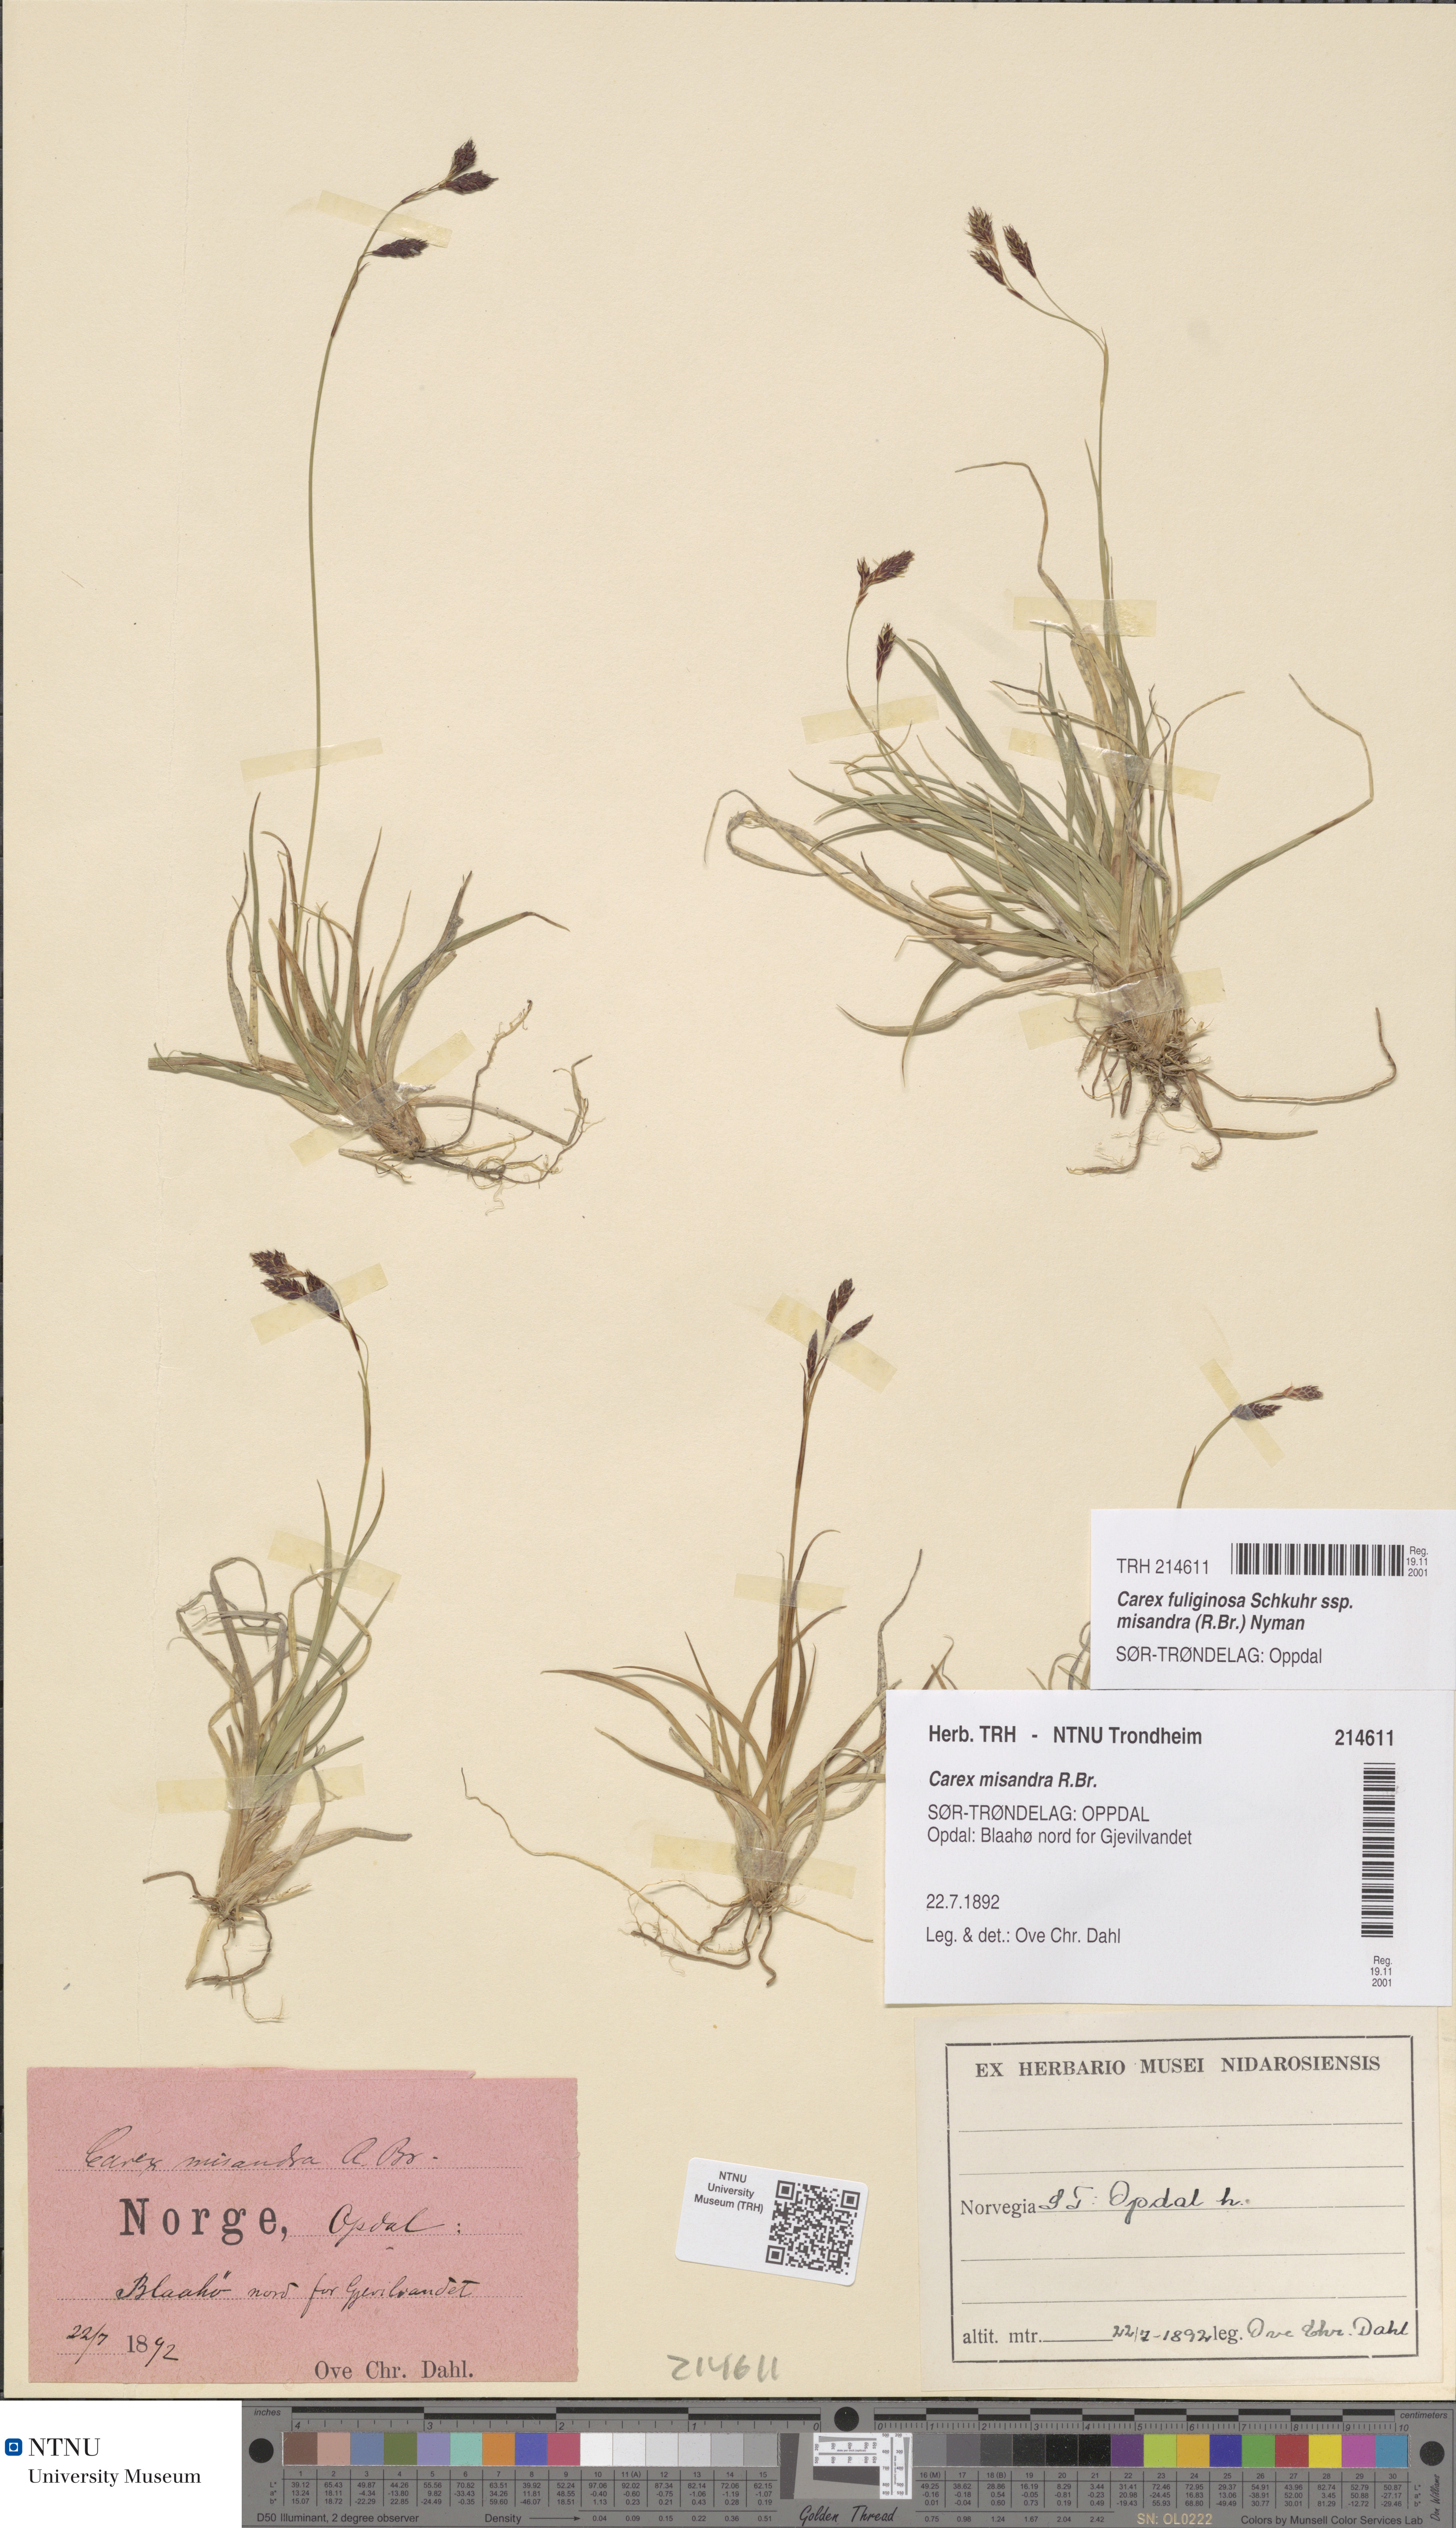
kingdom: Plantae
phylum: Tracheophyta
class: Liliopsida
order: Poales
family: Cyperaceae
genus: Carex
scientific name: Carex fuliginosa
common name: Few-flowered sedge
